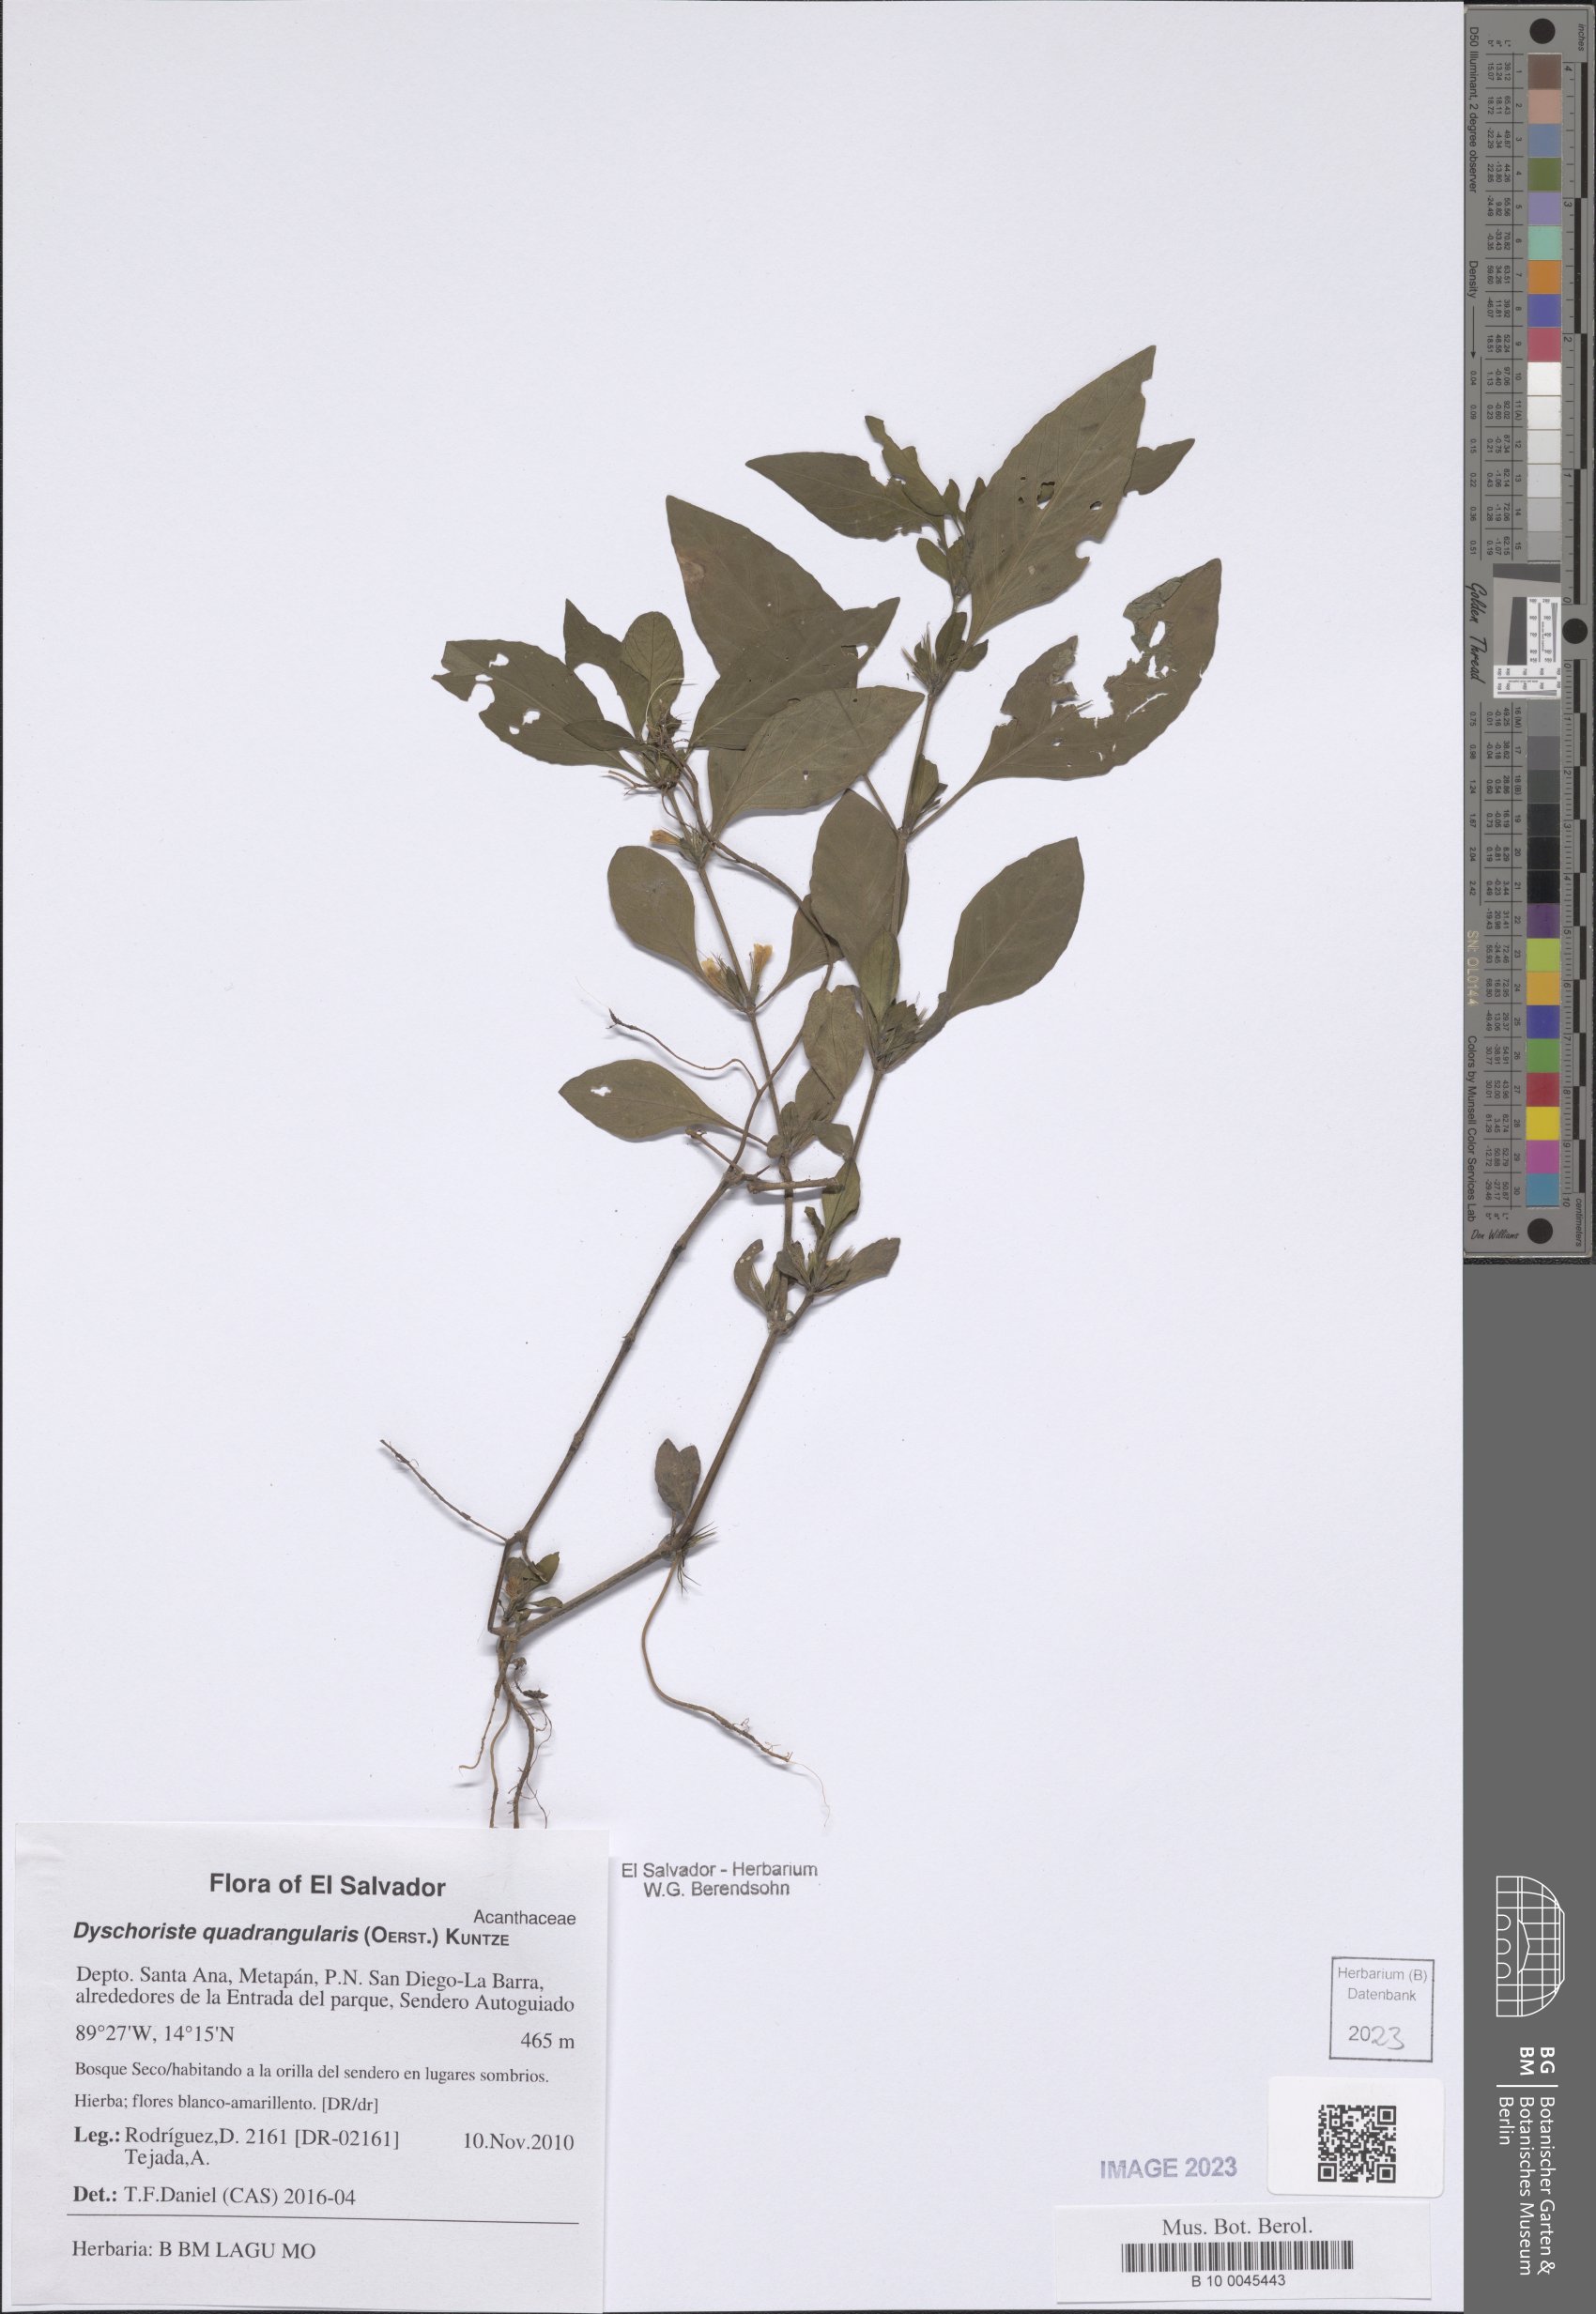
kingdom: Plantae
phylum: Tracheophyta
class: Magnoliopsida
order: Lamiales
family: Acanthaceae
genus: Dyschoriste
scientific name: Dyschoriste quadrangularis
